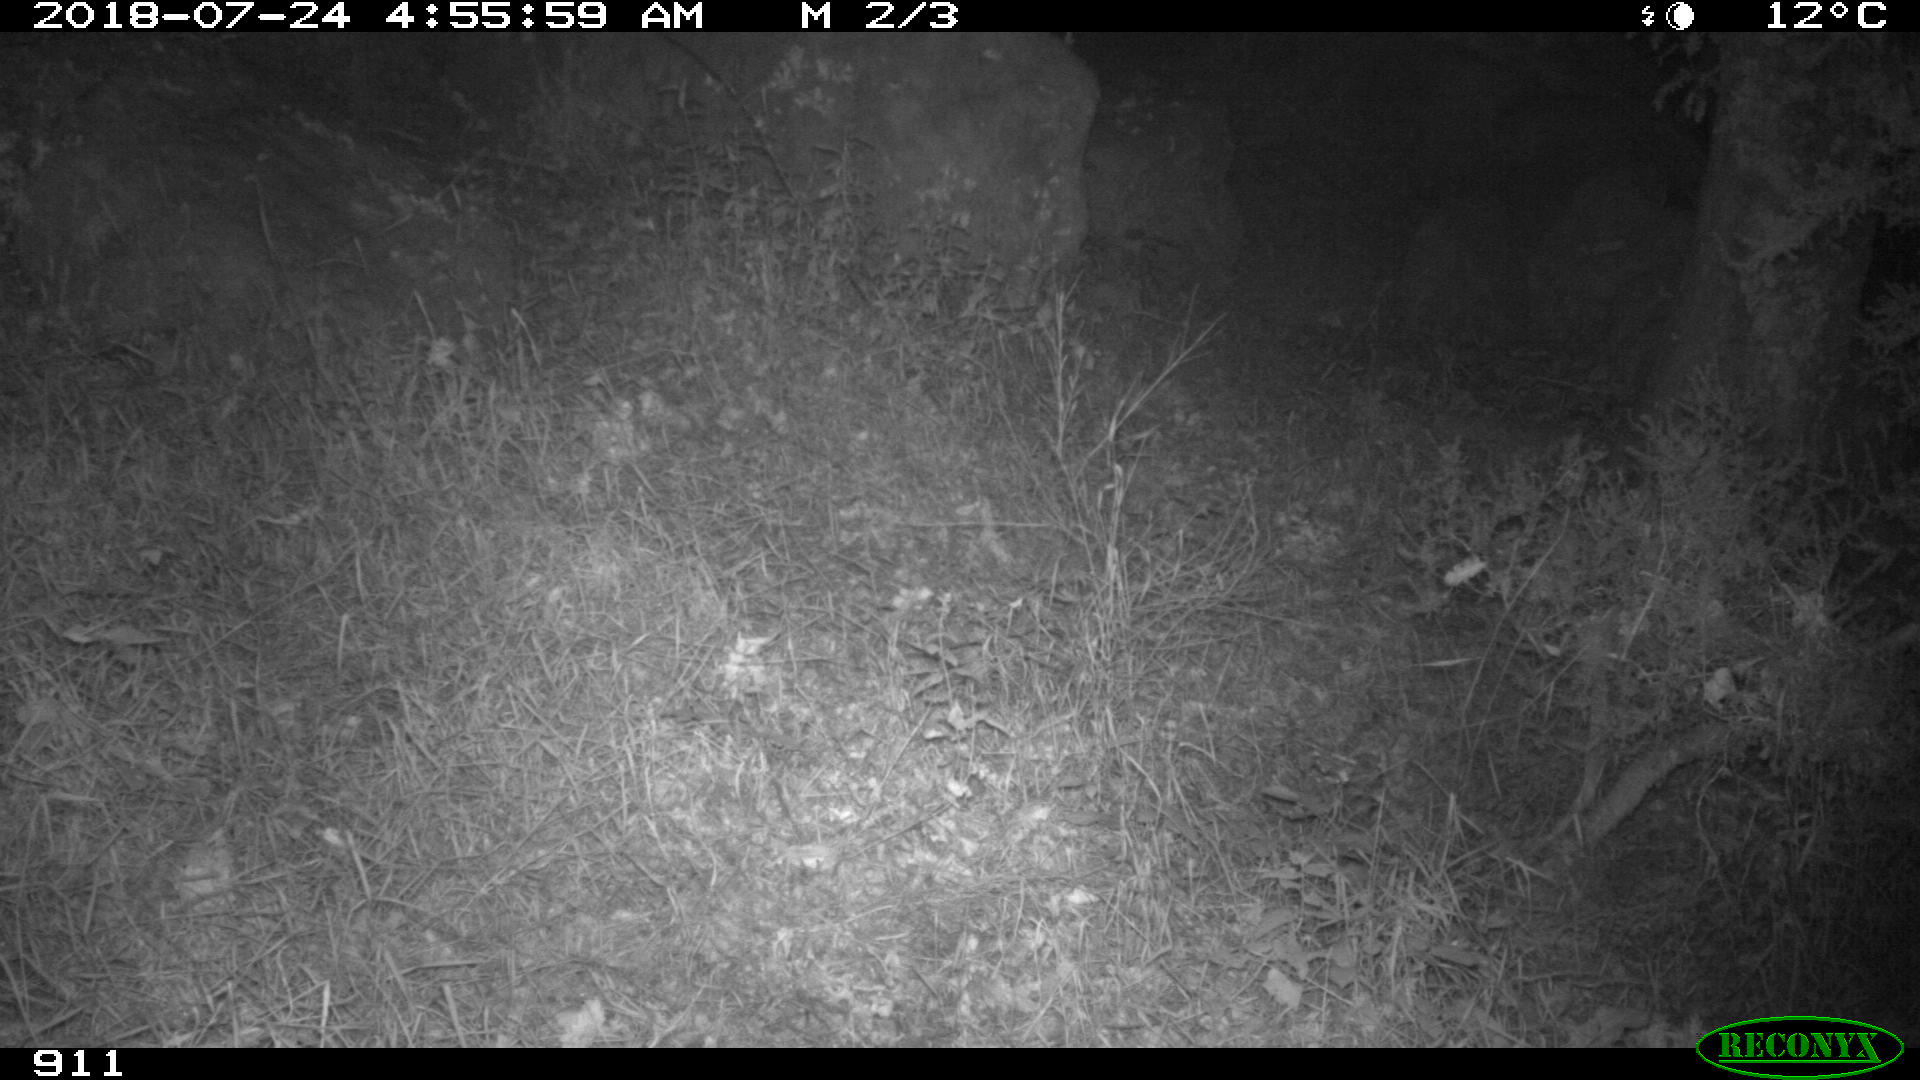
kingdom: Animalia
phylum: Chordata
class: Mammalia
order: Artiodactyla
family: Cervidae
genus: Capreolus
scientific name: Capreolus capreolus
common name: Western roe deer
